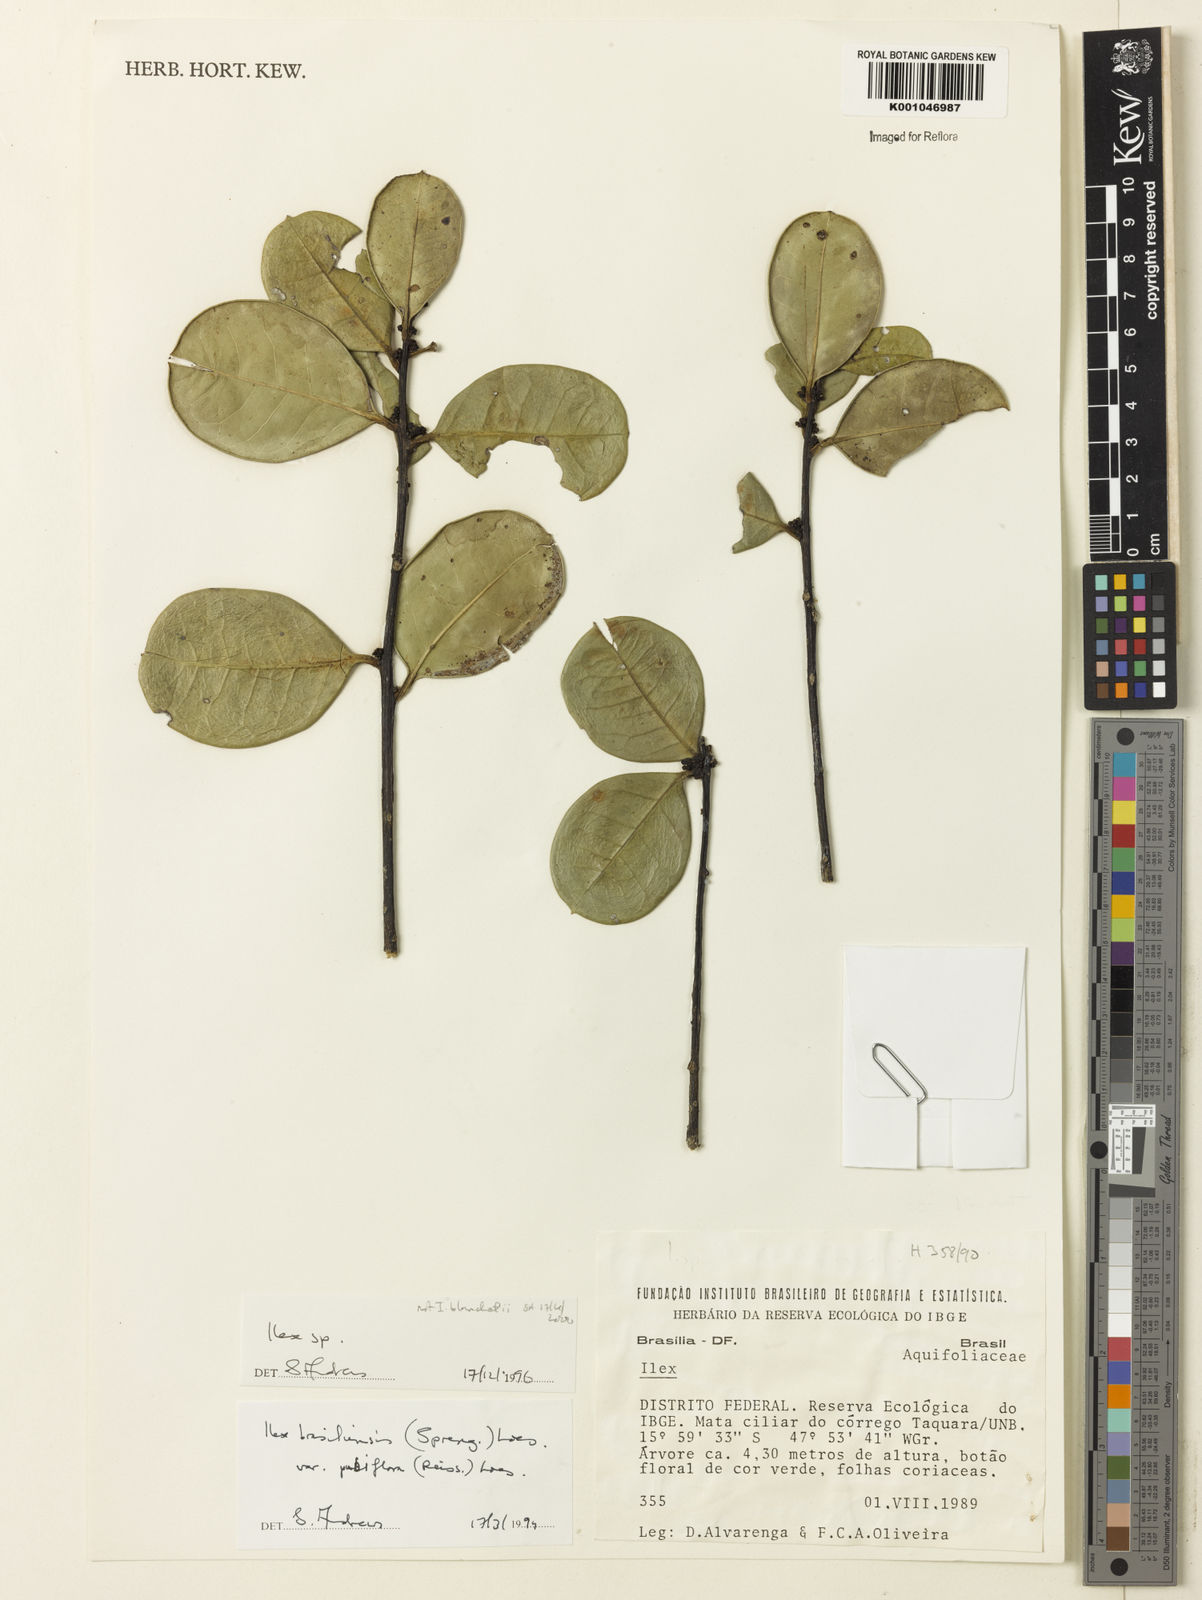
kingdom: Plantae
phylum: Tracheophyta
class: Magnoliopsida
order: Aquifoliales
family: Aquifoliaceae
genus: Ilex
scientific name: Ilex
